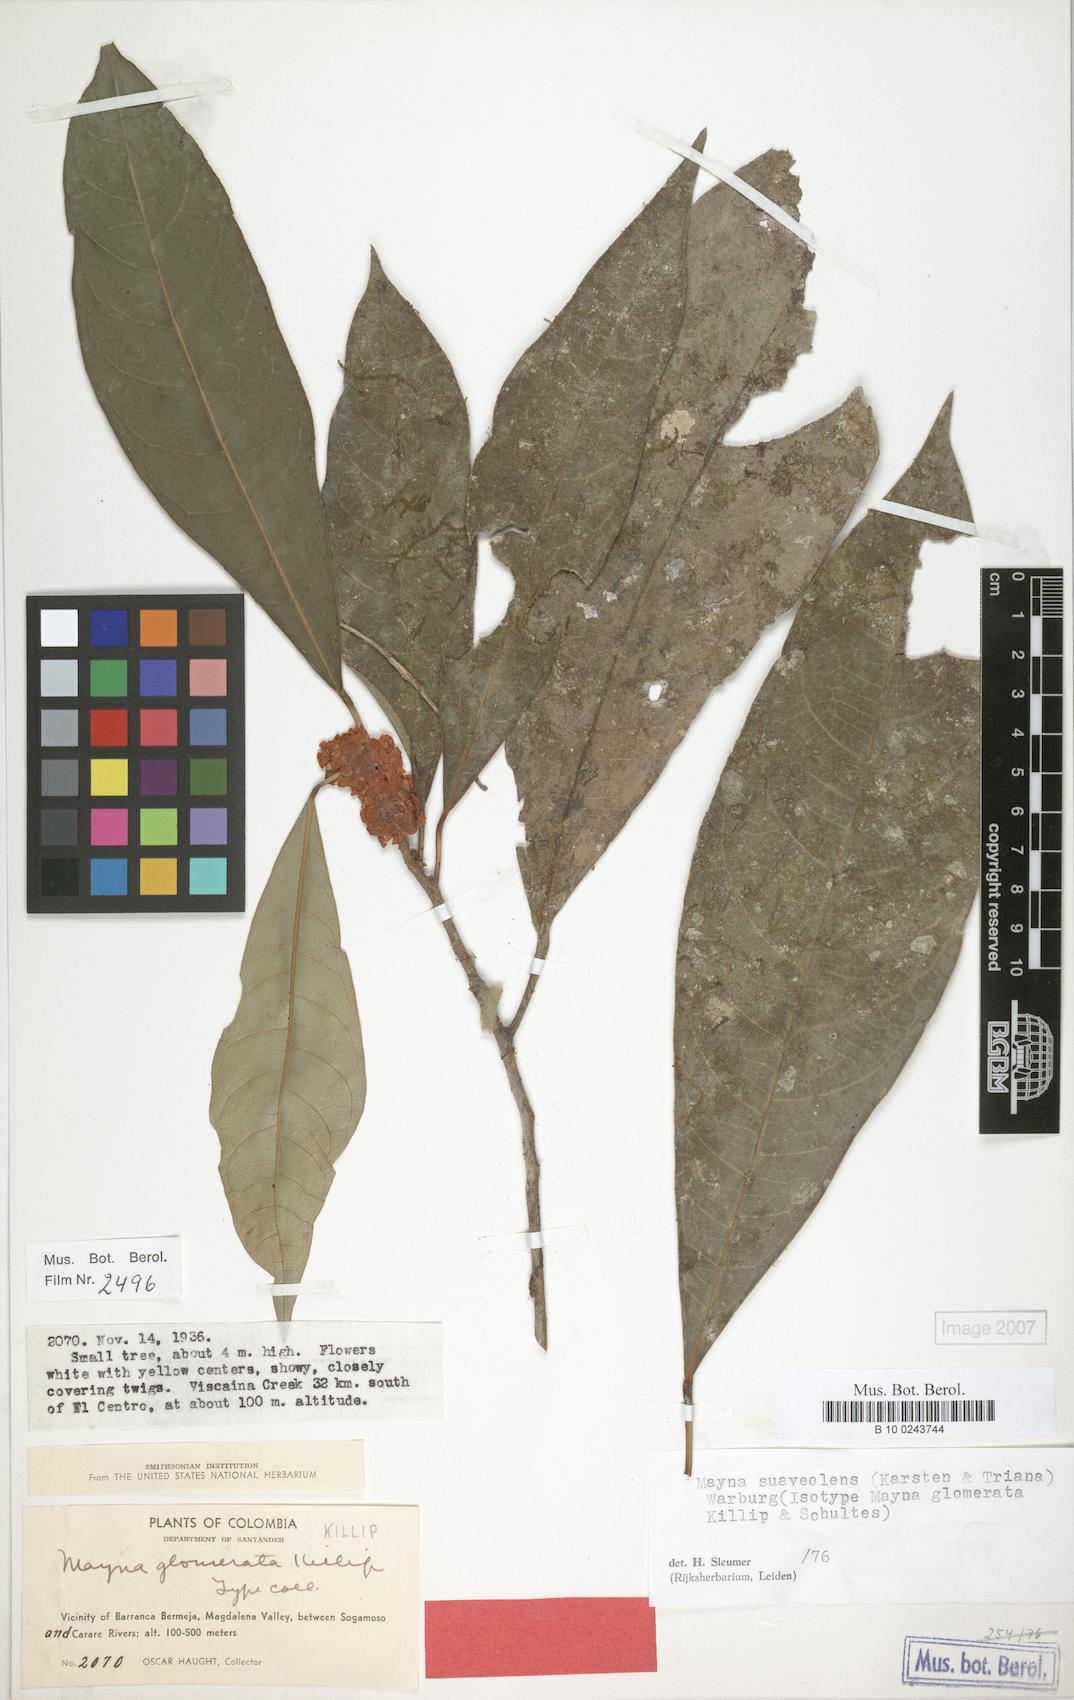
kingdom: Plantae
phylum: Tracheophyta
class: Magnoliopsida
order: Malpighiales
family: Achariaceae
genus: Mayna
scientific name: Mayna suaveolens
